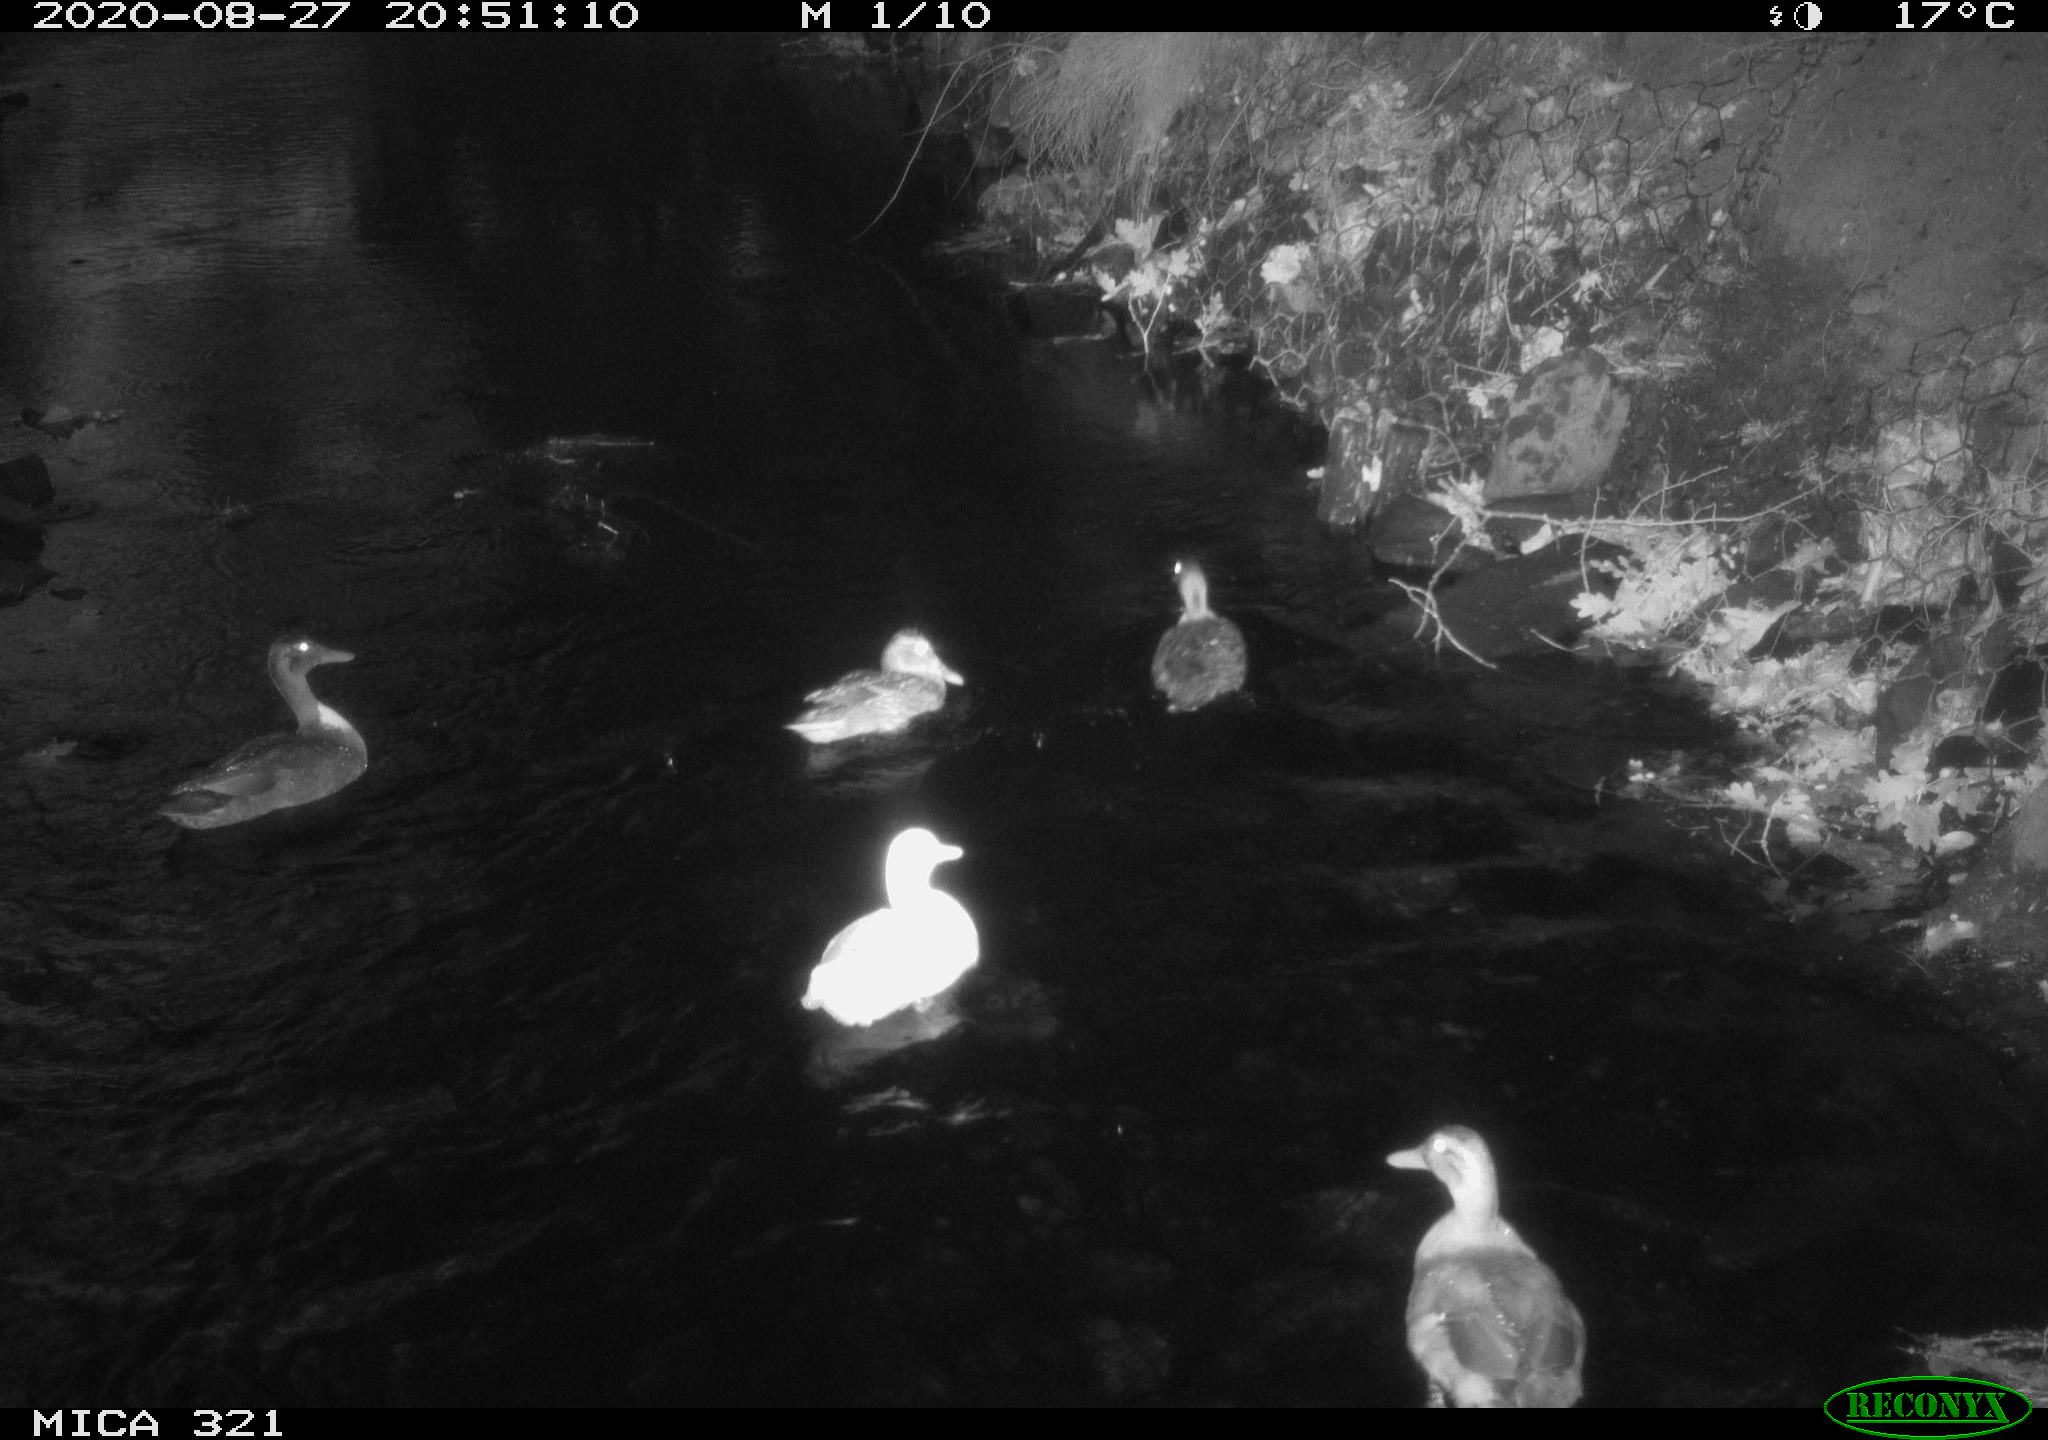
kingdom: Animalia
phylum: Chordata
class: Aves
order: Anseriformes
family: Anatidae
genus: Anas
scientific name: Anas platyrhynchos
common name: Mallard
